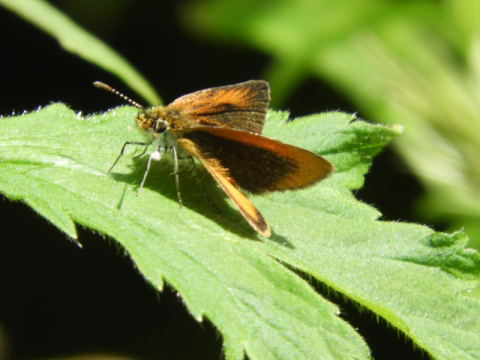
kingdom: Animalia
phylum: Arthropoda
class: Insecta
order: Lepidoptera
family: Hesperiidae
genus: Ancyloxypha
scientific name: Ancyloxypha numitor
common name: Least Skipper
